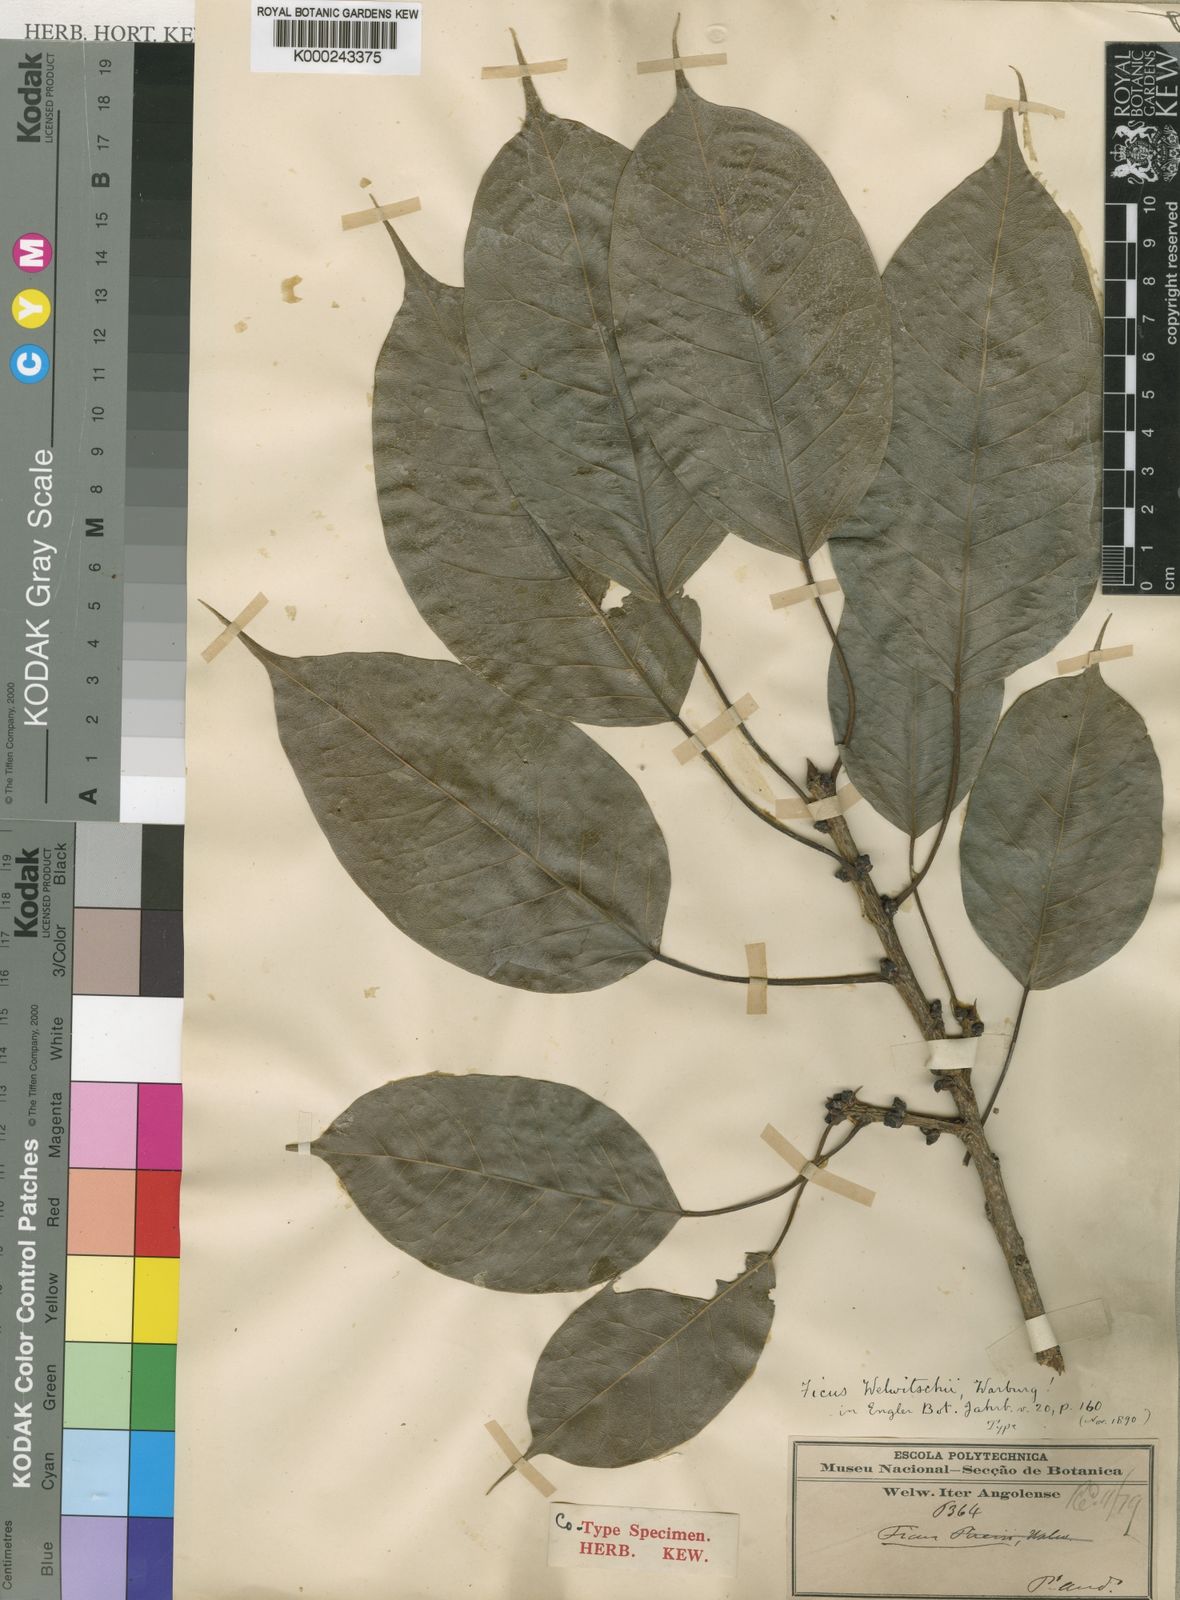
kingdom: Plantae
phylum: Tracheophyta
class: Magnoliopsida
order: Rosales
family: Moraceae
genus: Ficus
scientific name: Ficus cordata
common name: Namaqua rock fig
